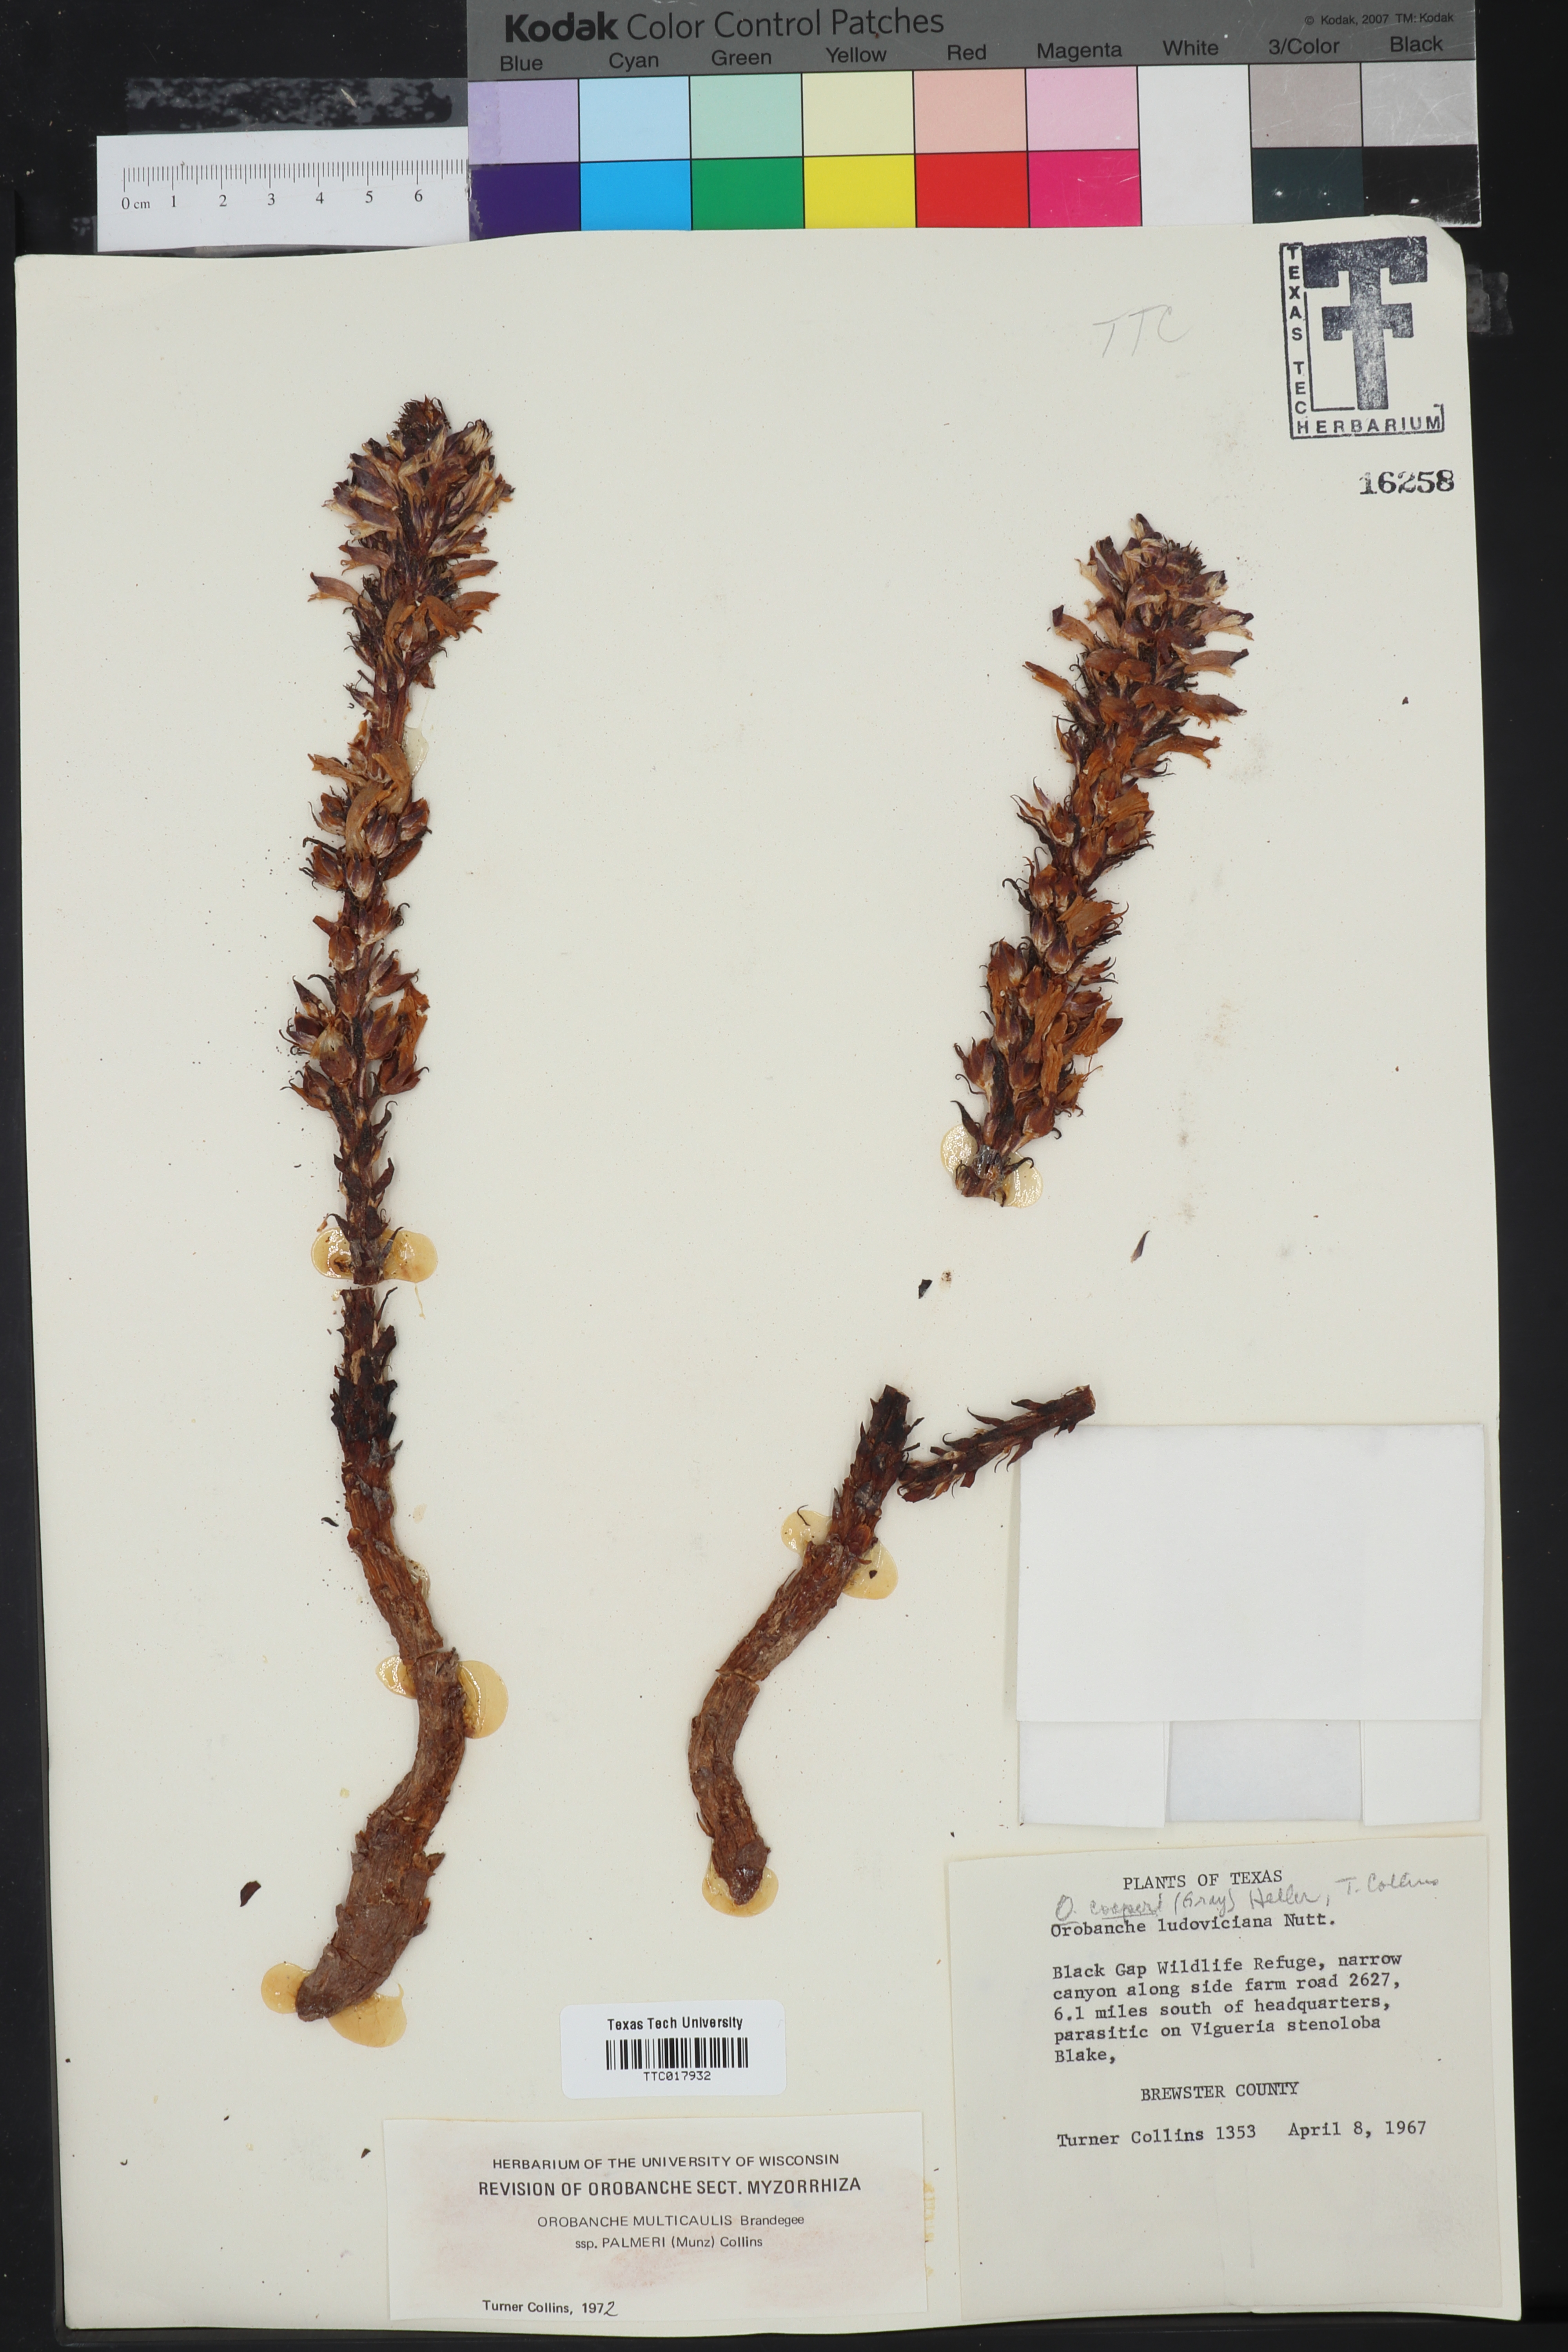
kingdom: Plantae
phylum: Tracheophyta
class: Magnoliopsida
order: Lamiales
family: Orobanchaceae
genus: Aphyllon
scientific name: Aphyllon cooperi
